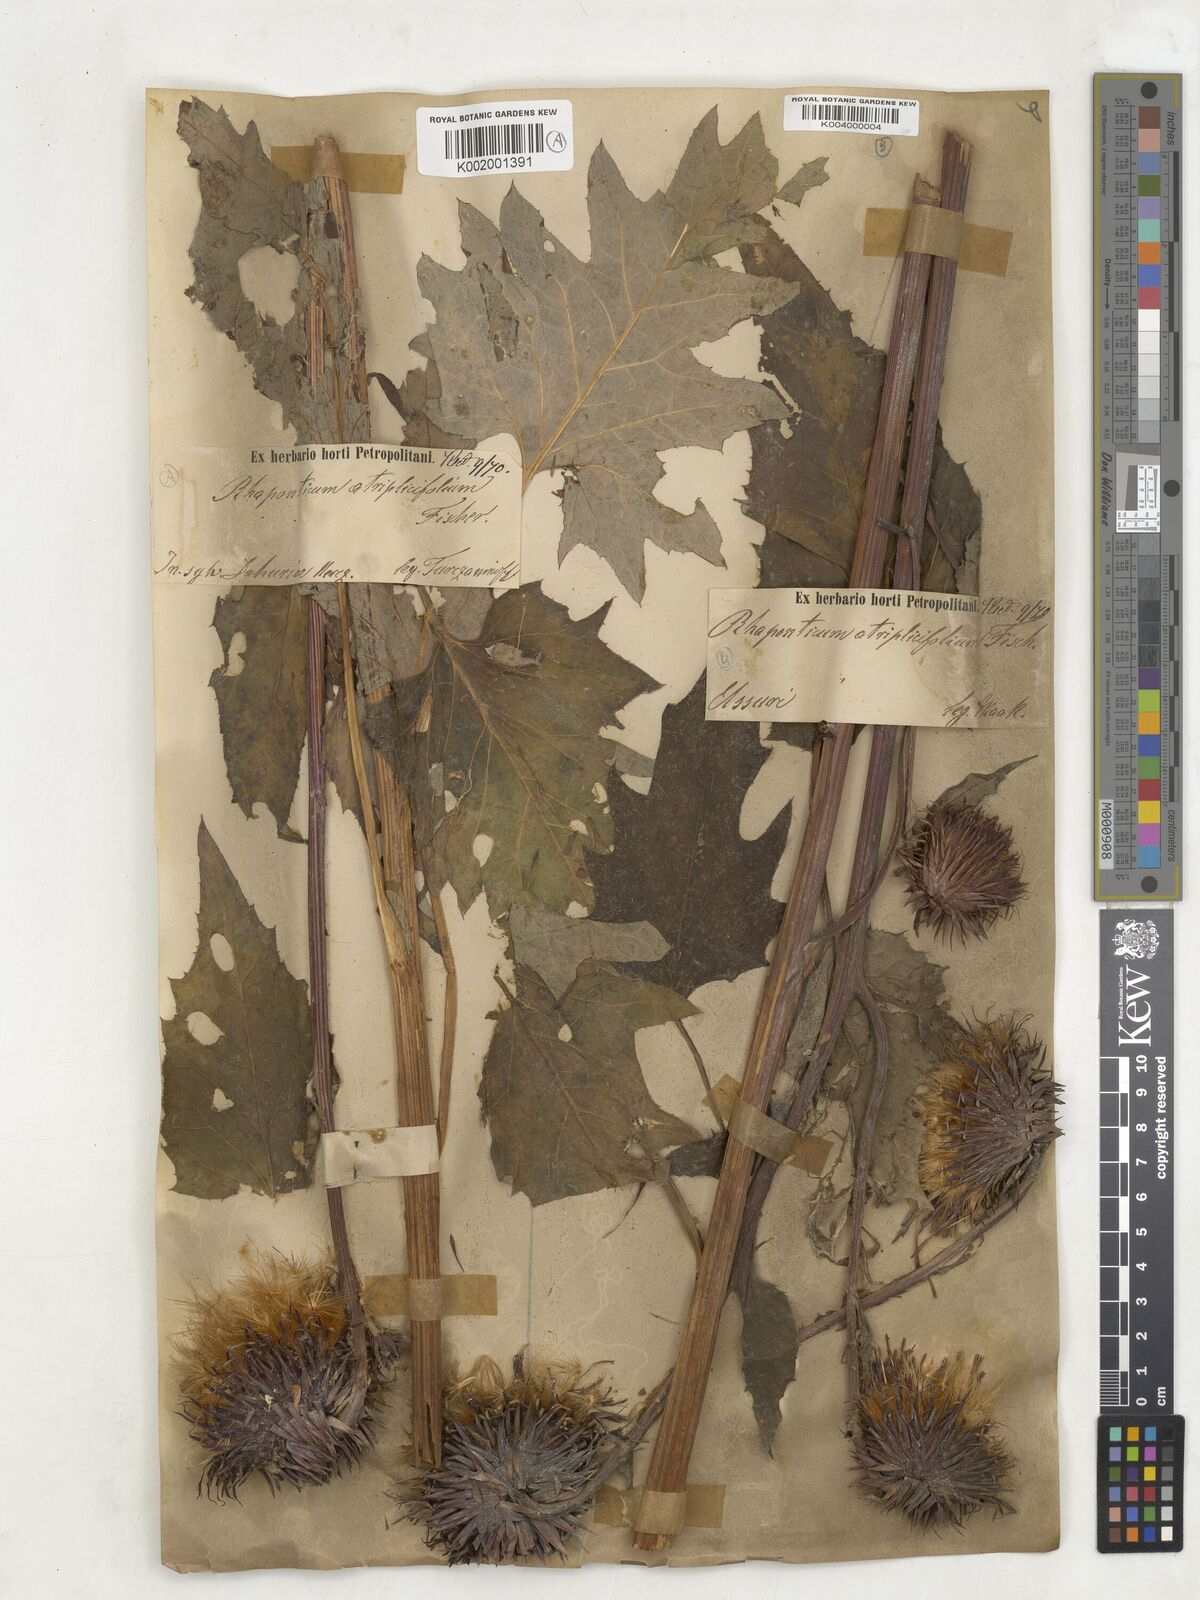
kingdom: Plantae
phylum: Tracheophyta
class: Magnoliopsida
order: Asterales
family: Asteraceae
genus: Rhaponticum
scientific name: Rhaponticum
